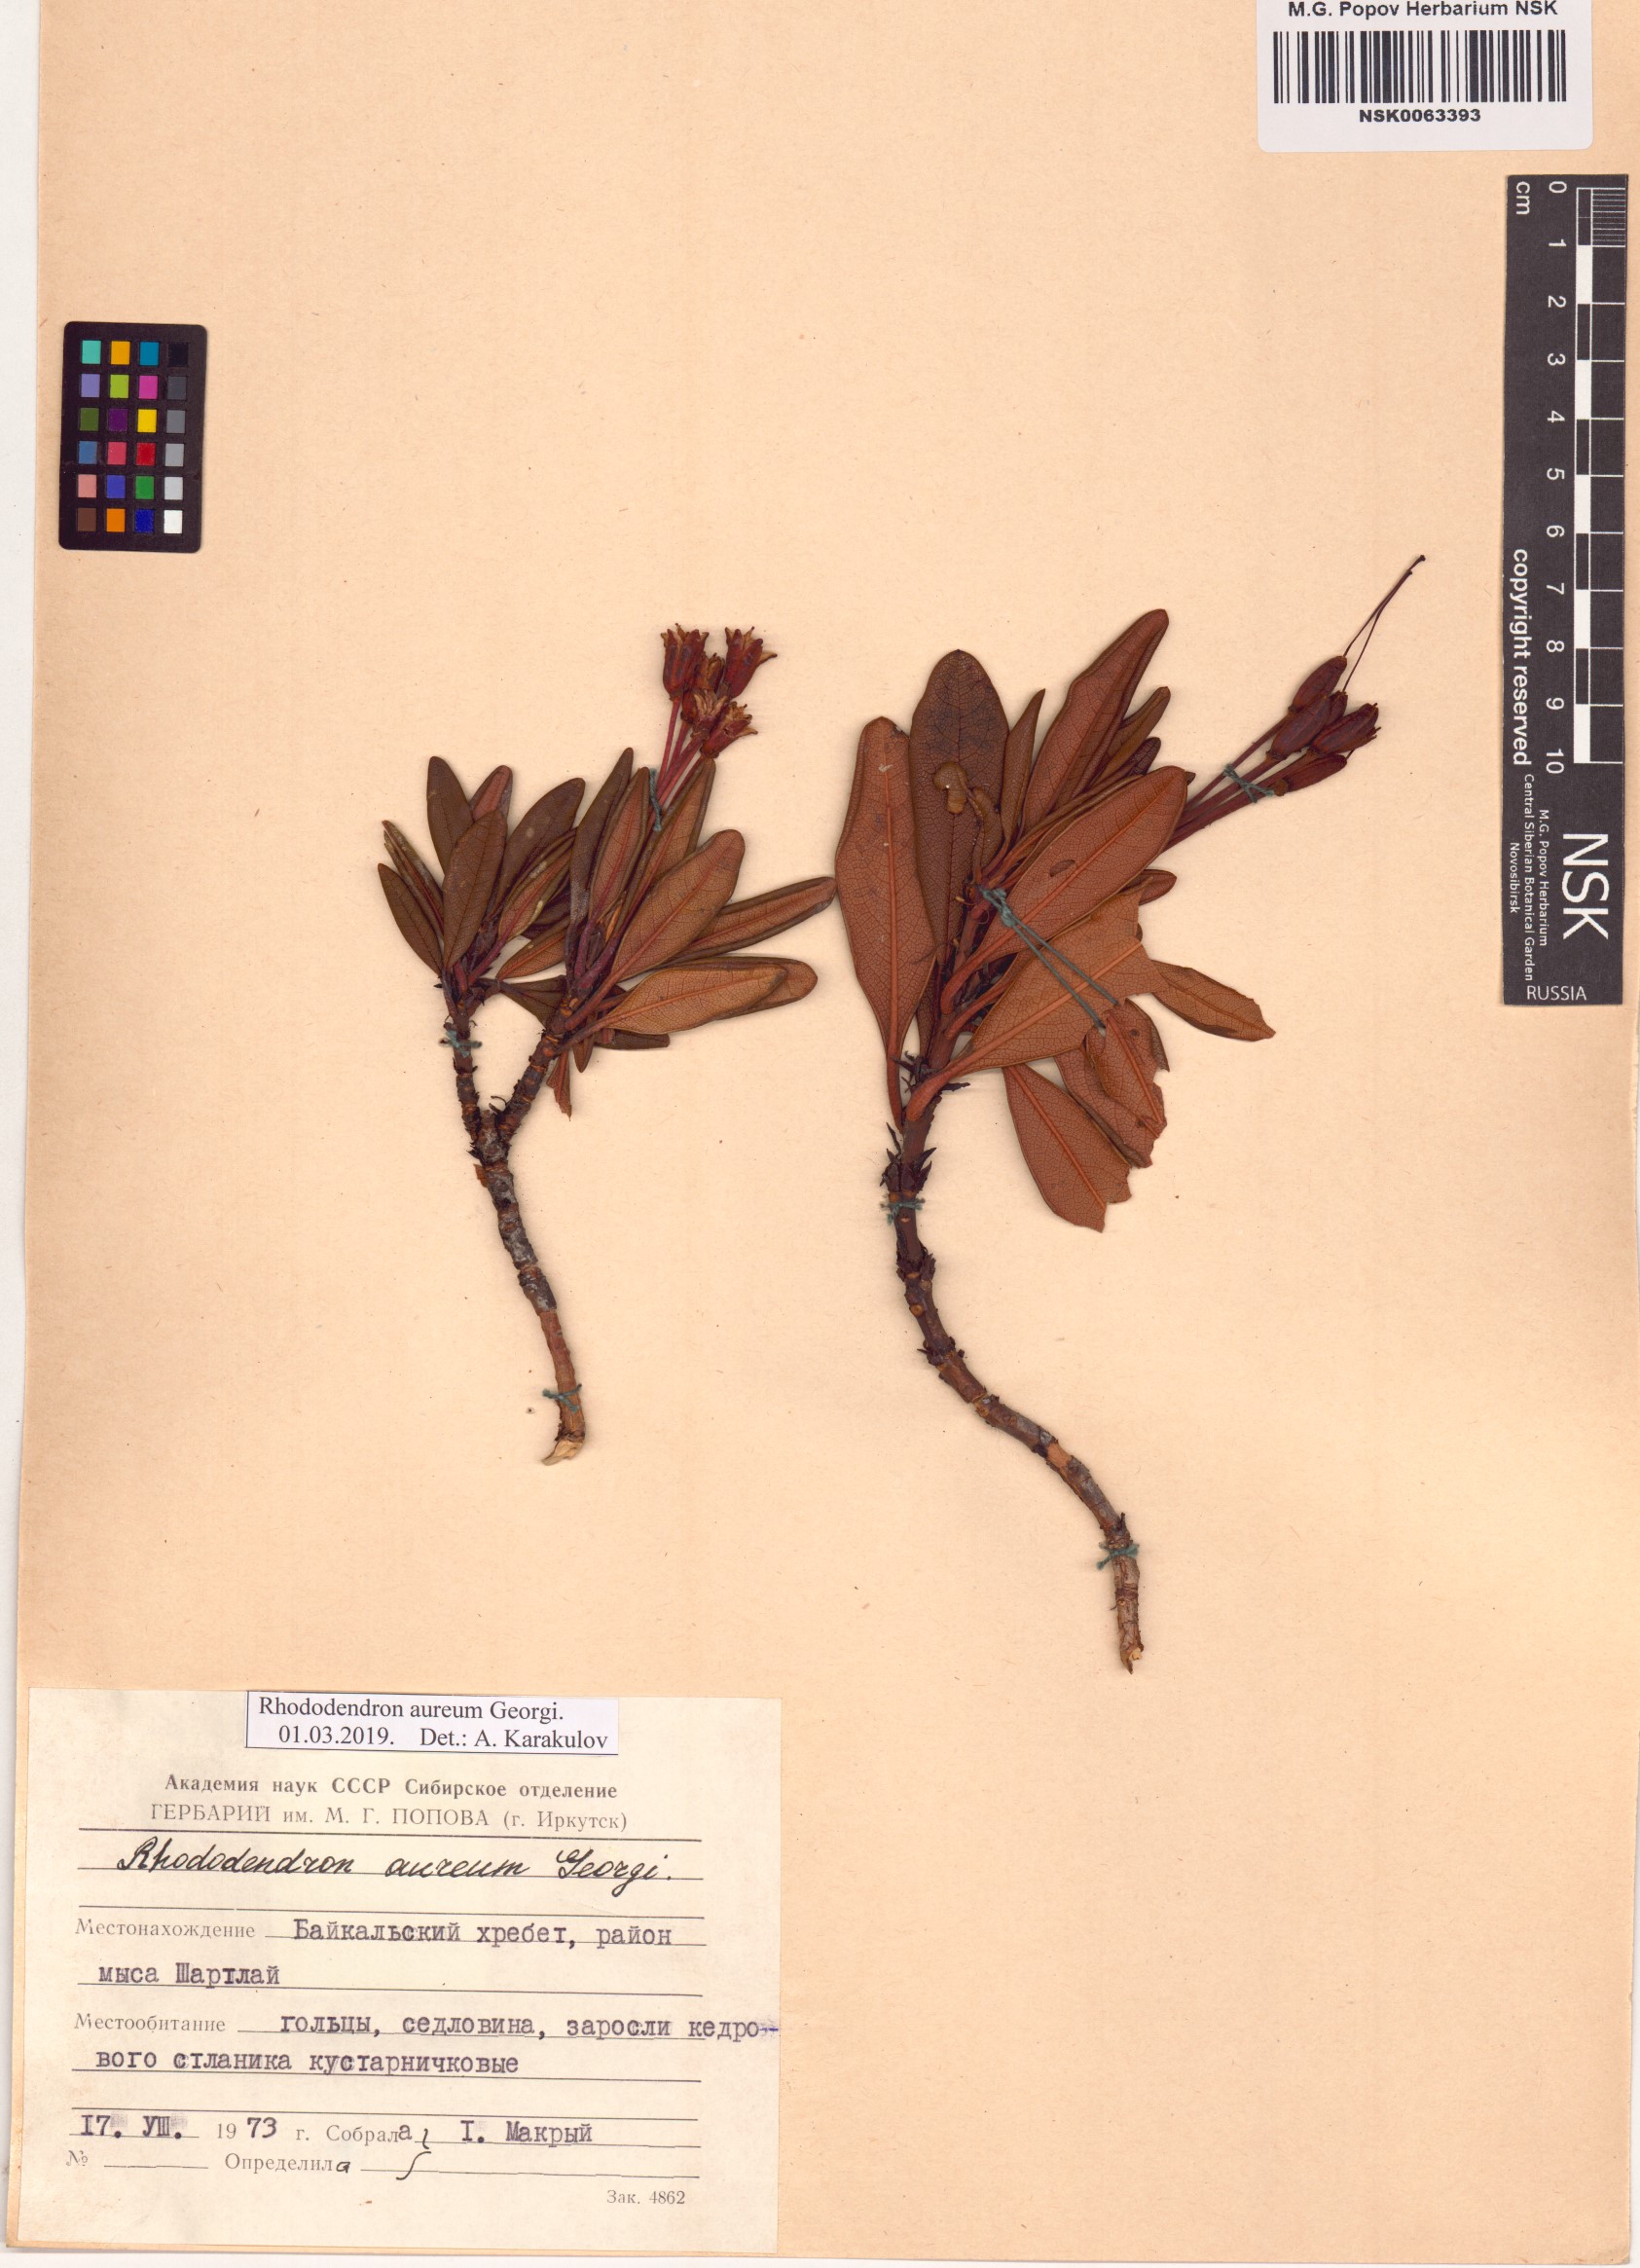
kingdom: Plantae
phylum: Tracheophyta
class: Magnoliopsida
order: Ericales
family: Ericaceae
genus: Rhododendron
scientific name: Rhododendron aureum
